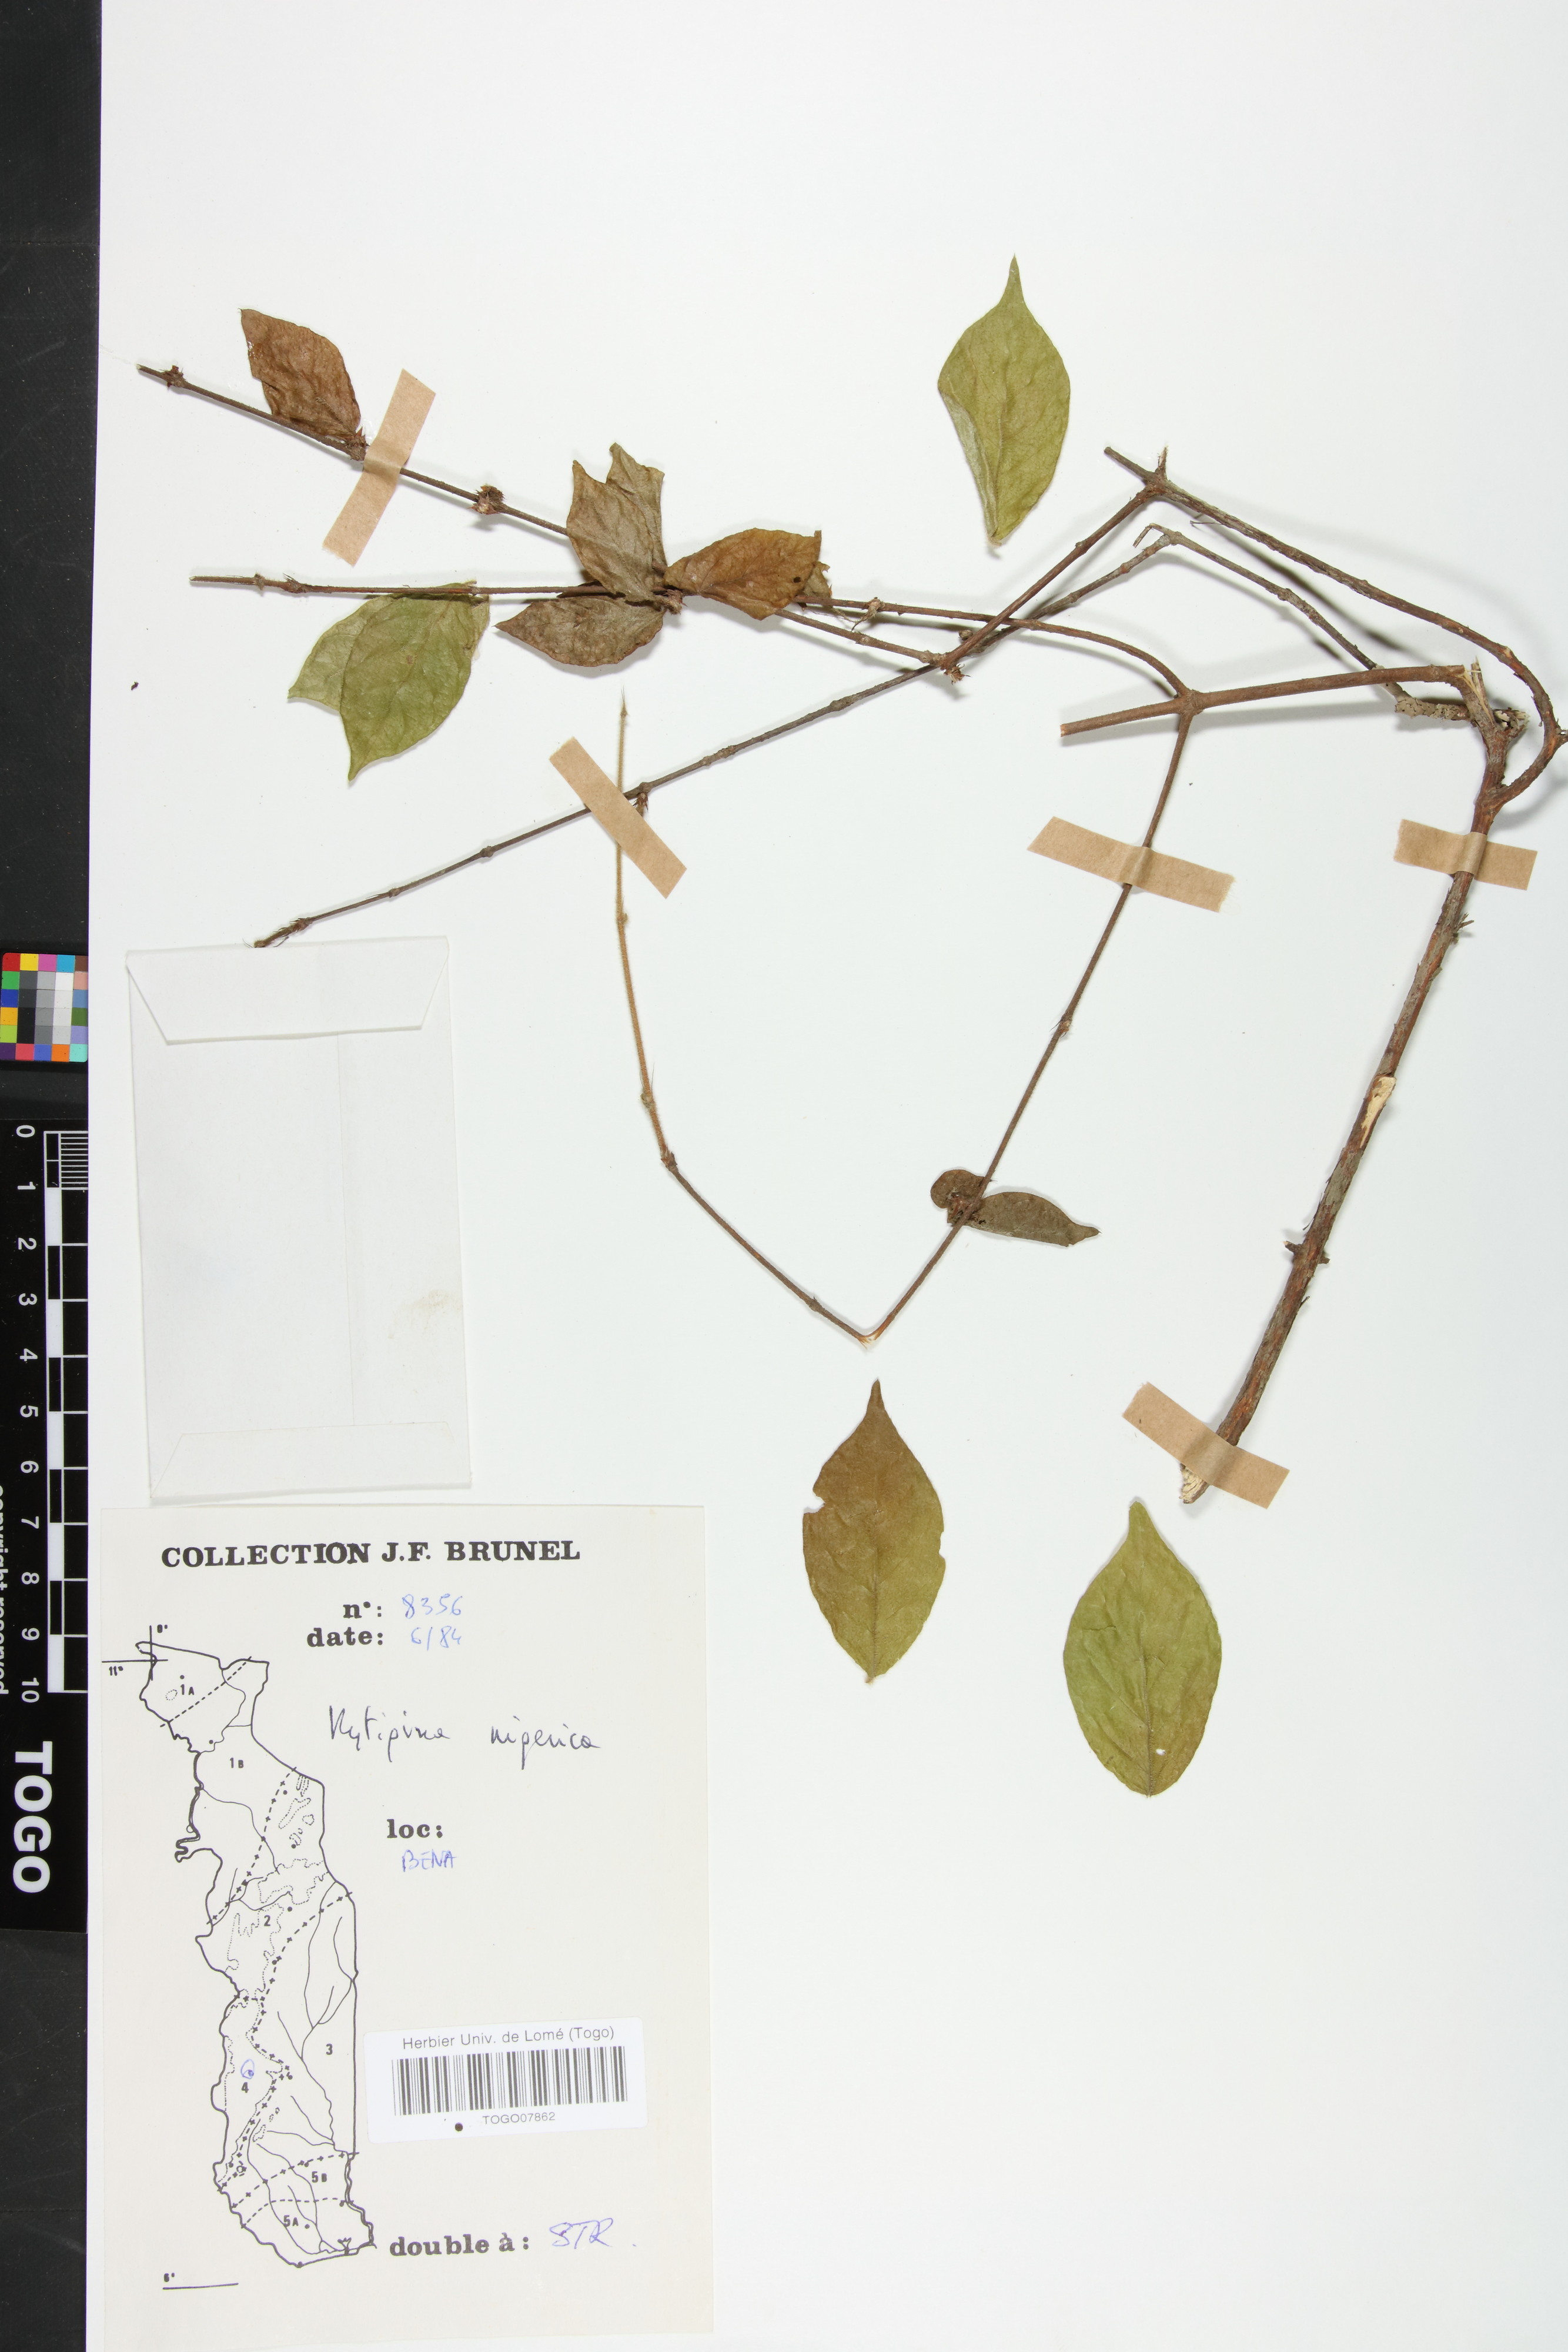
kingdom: Plantae
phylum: Tracheophyta
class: Magnoliopsida
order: Gentianales
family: Rubiaceae
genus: Rytigynia
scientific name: Rytigynia nigerica
